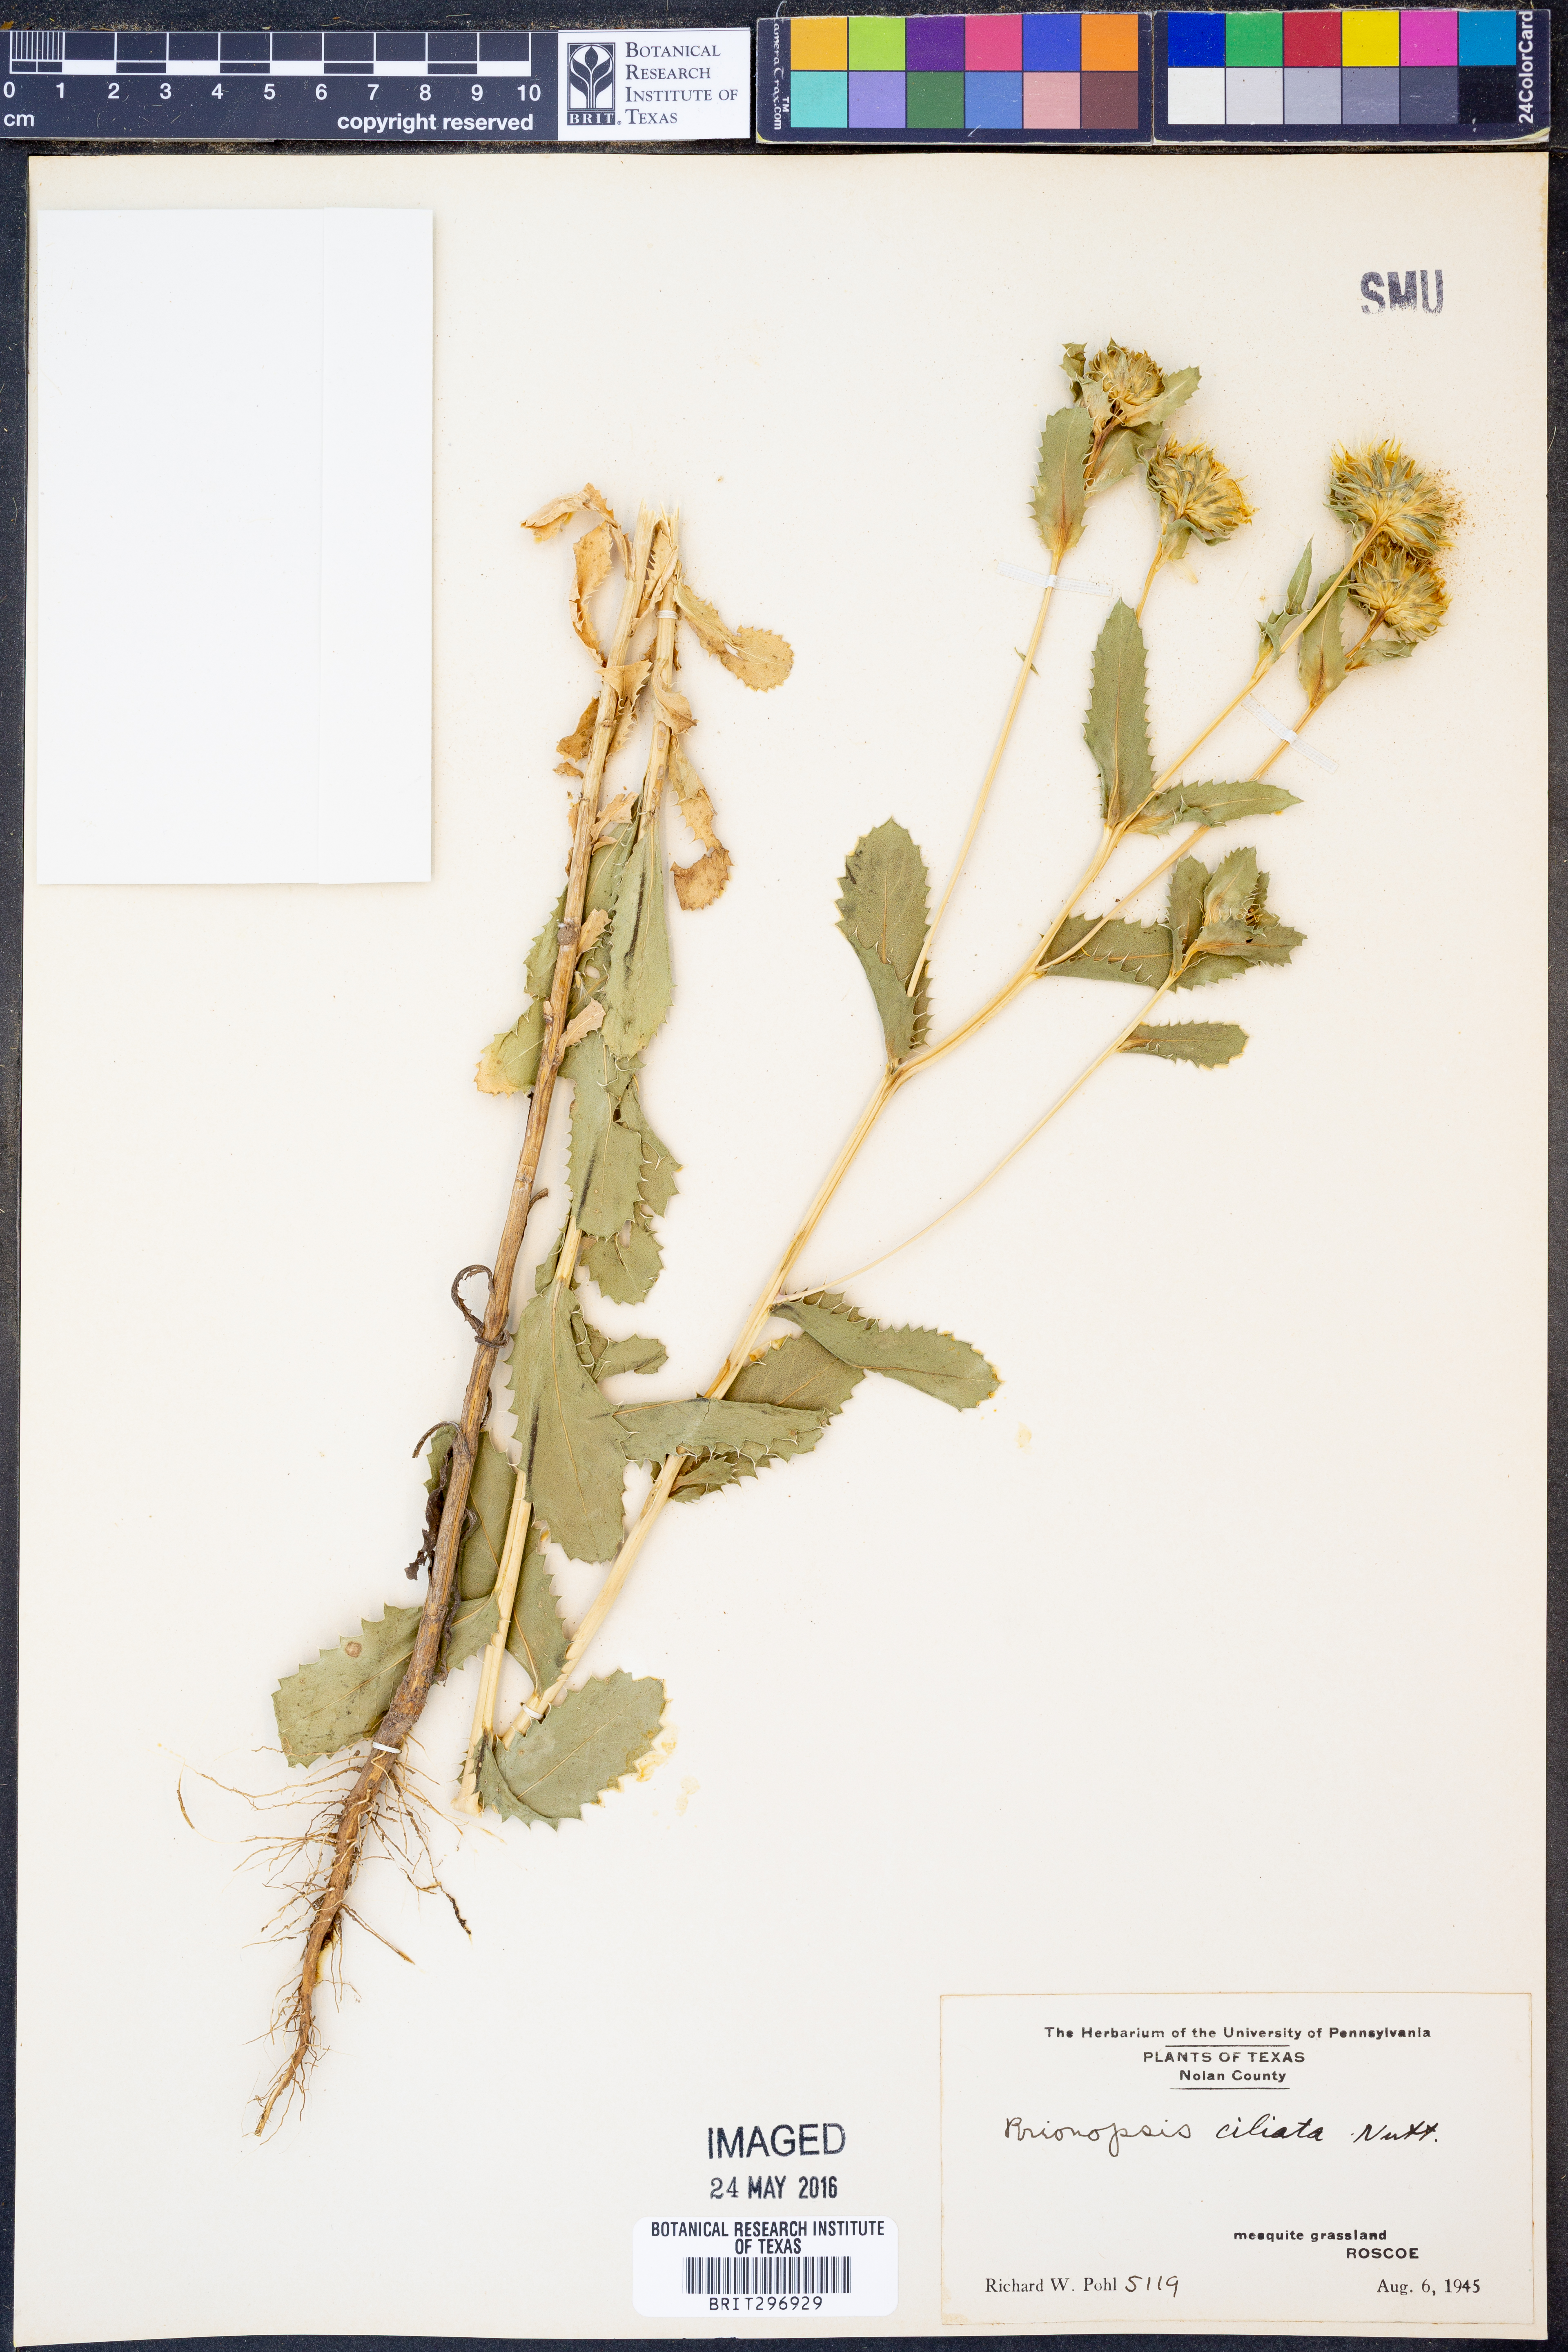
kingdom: Plantae
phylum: Tracheophyta
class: Magnoliopsida
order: Asterales
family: Asteraceae
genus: Grindelia
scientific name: Grindelia ciliata
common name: Goldenweed
